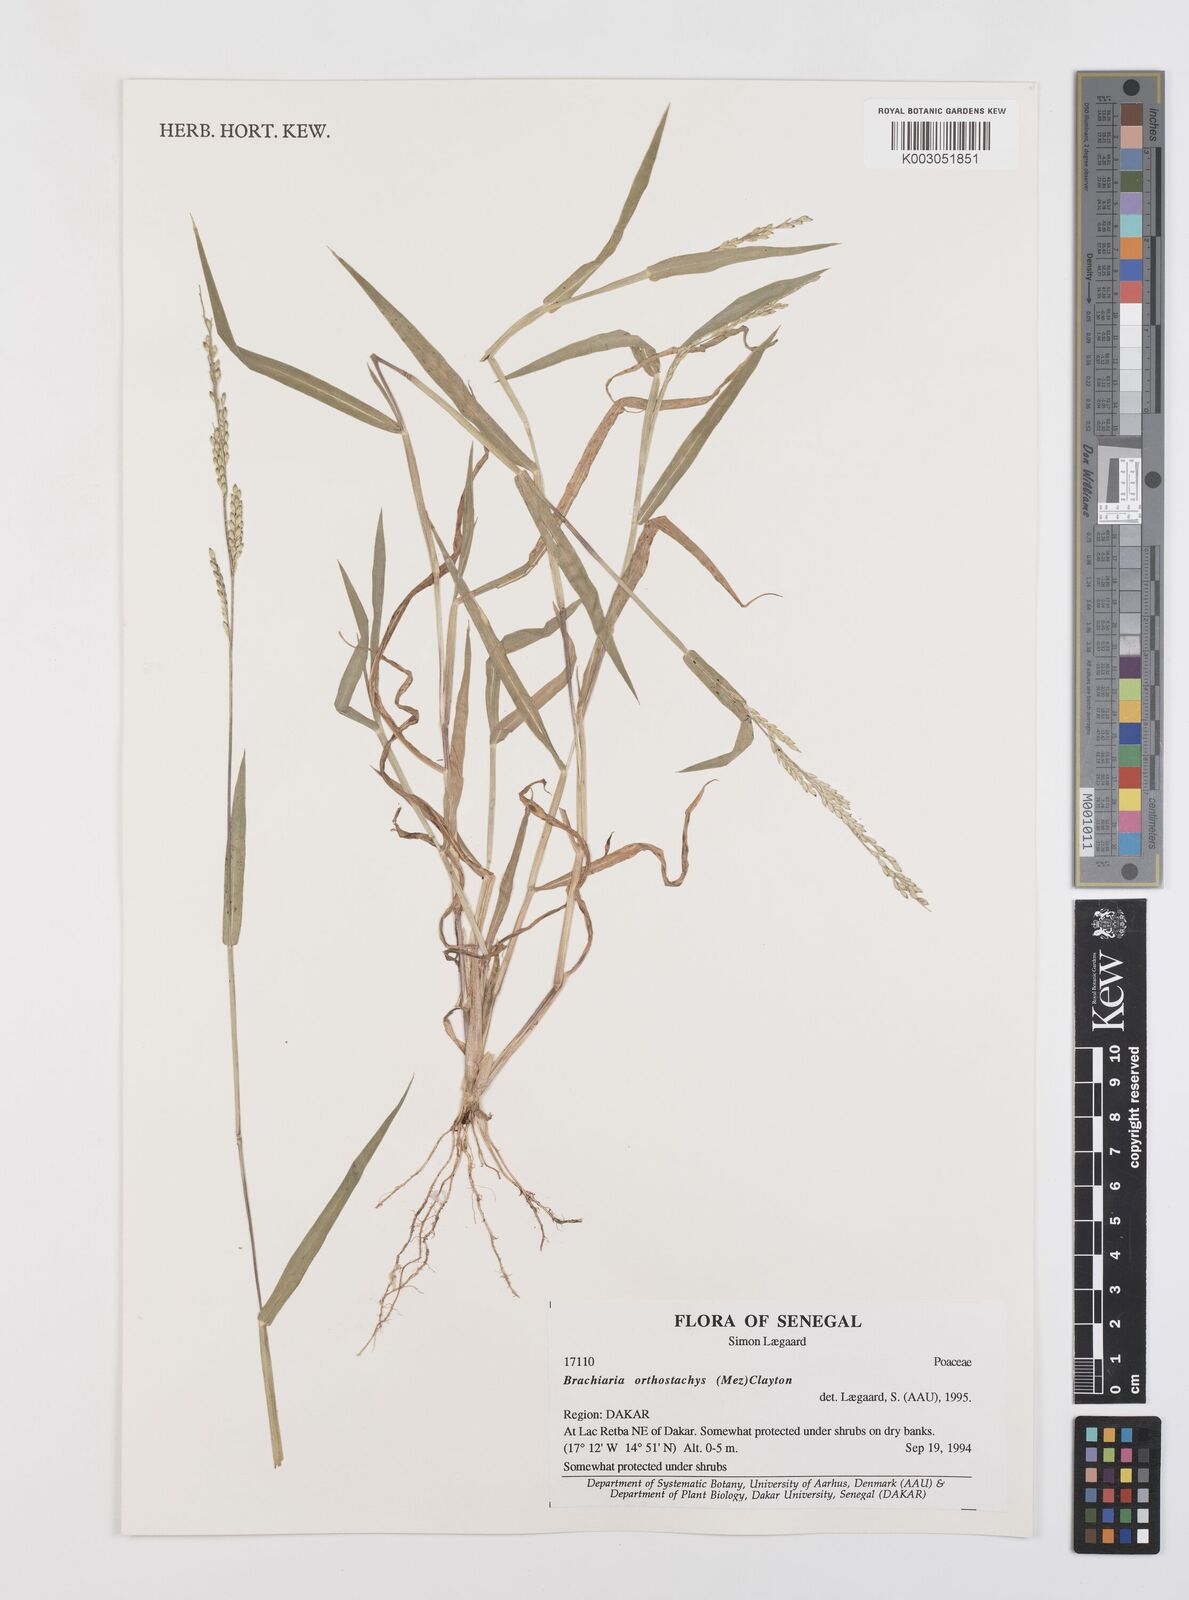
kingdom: Plantae
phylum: Tracheophyta
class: Liliopsida
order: Poales
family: Poaceae
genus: Urochloa
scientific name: Urochloa orthostachys
